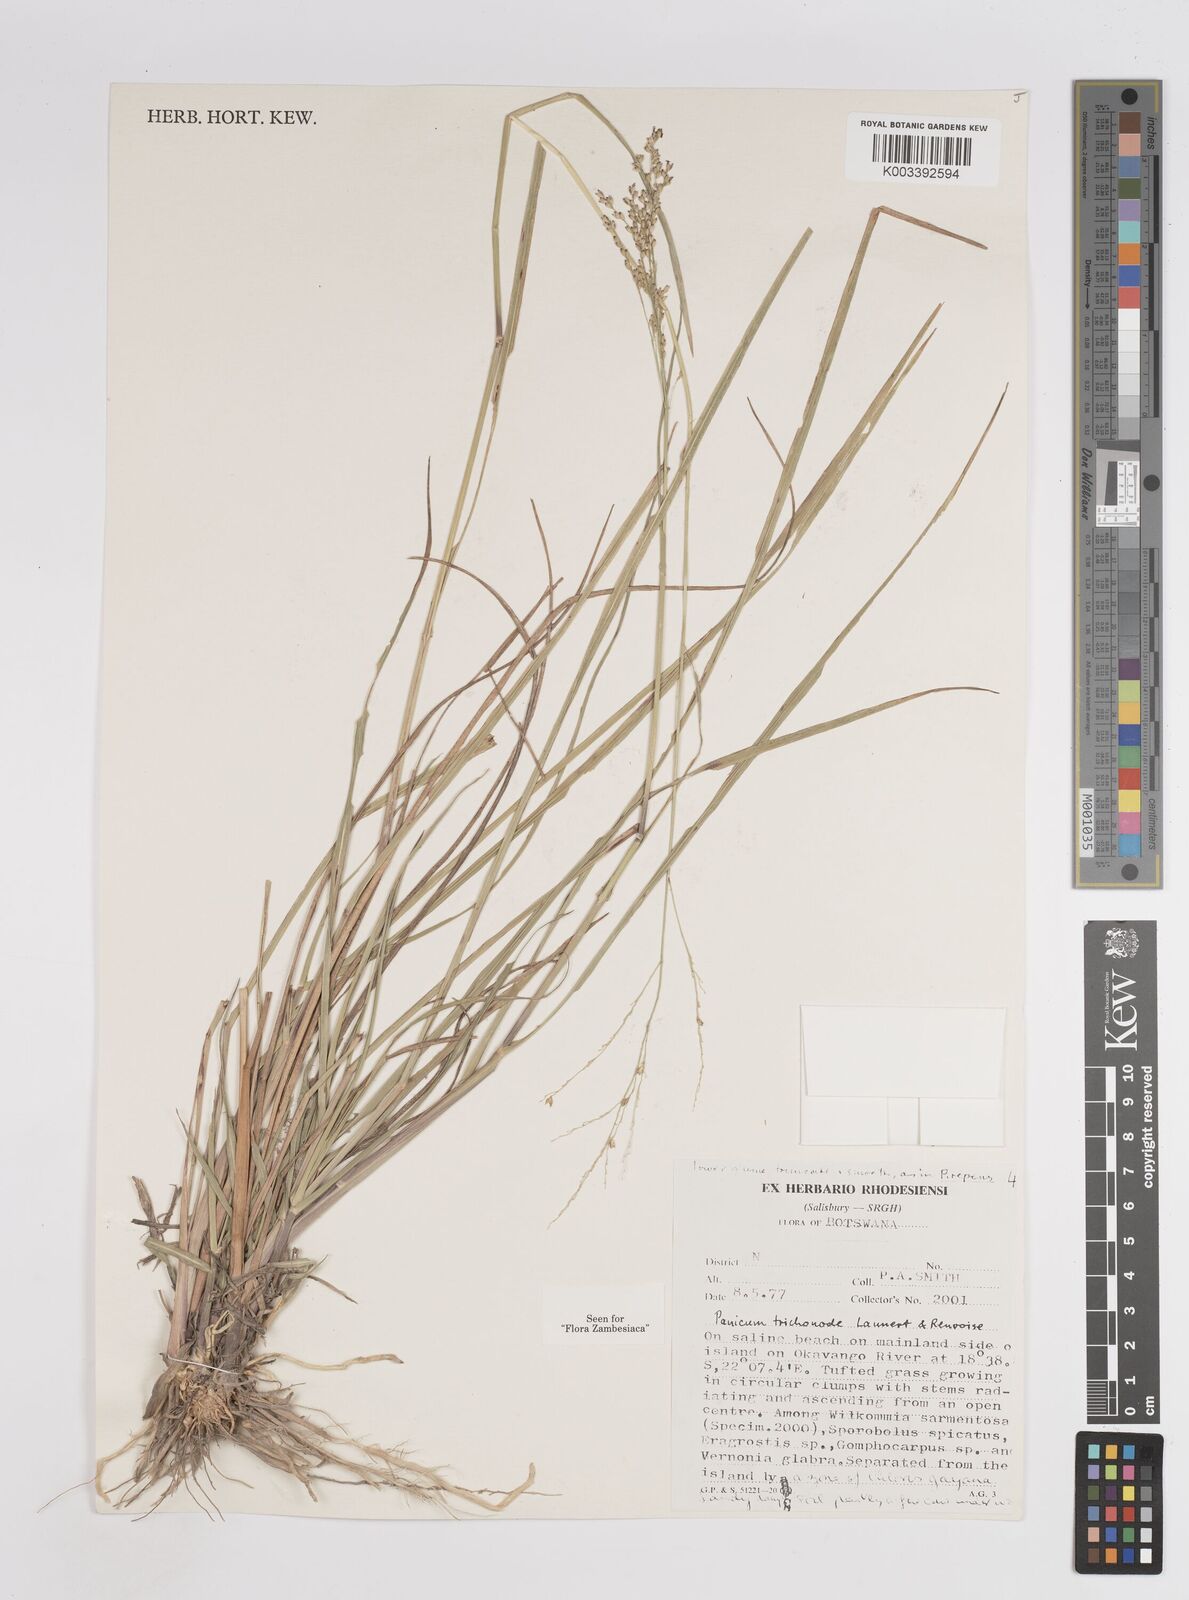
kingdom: Plantae
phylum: Tracheophyta
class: Liliopsida
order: Poales
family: Poaceae
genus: Panicum
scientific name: Panicum trichonode
